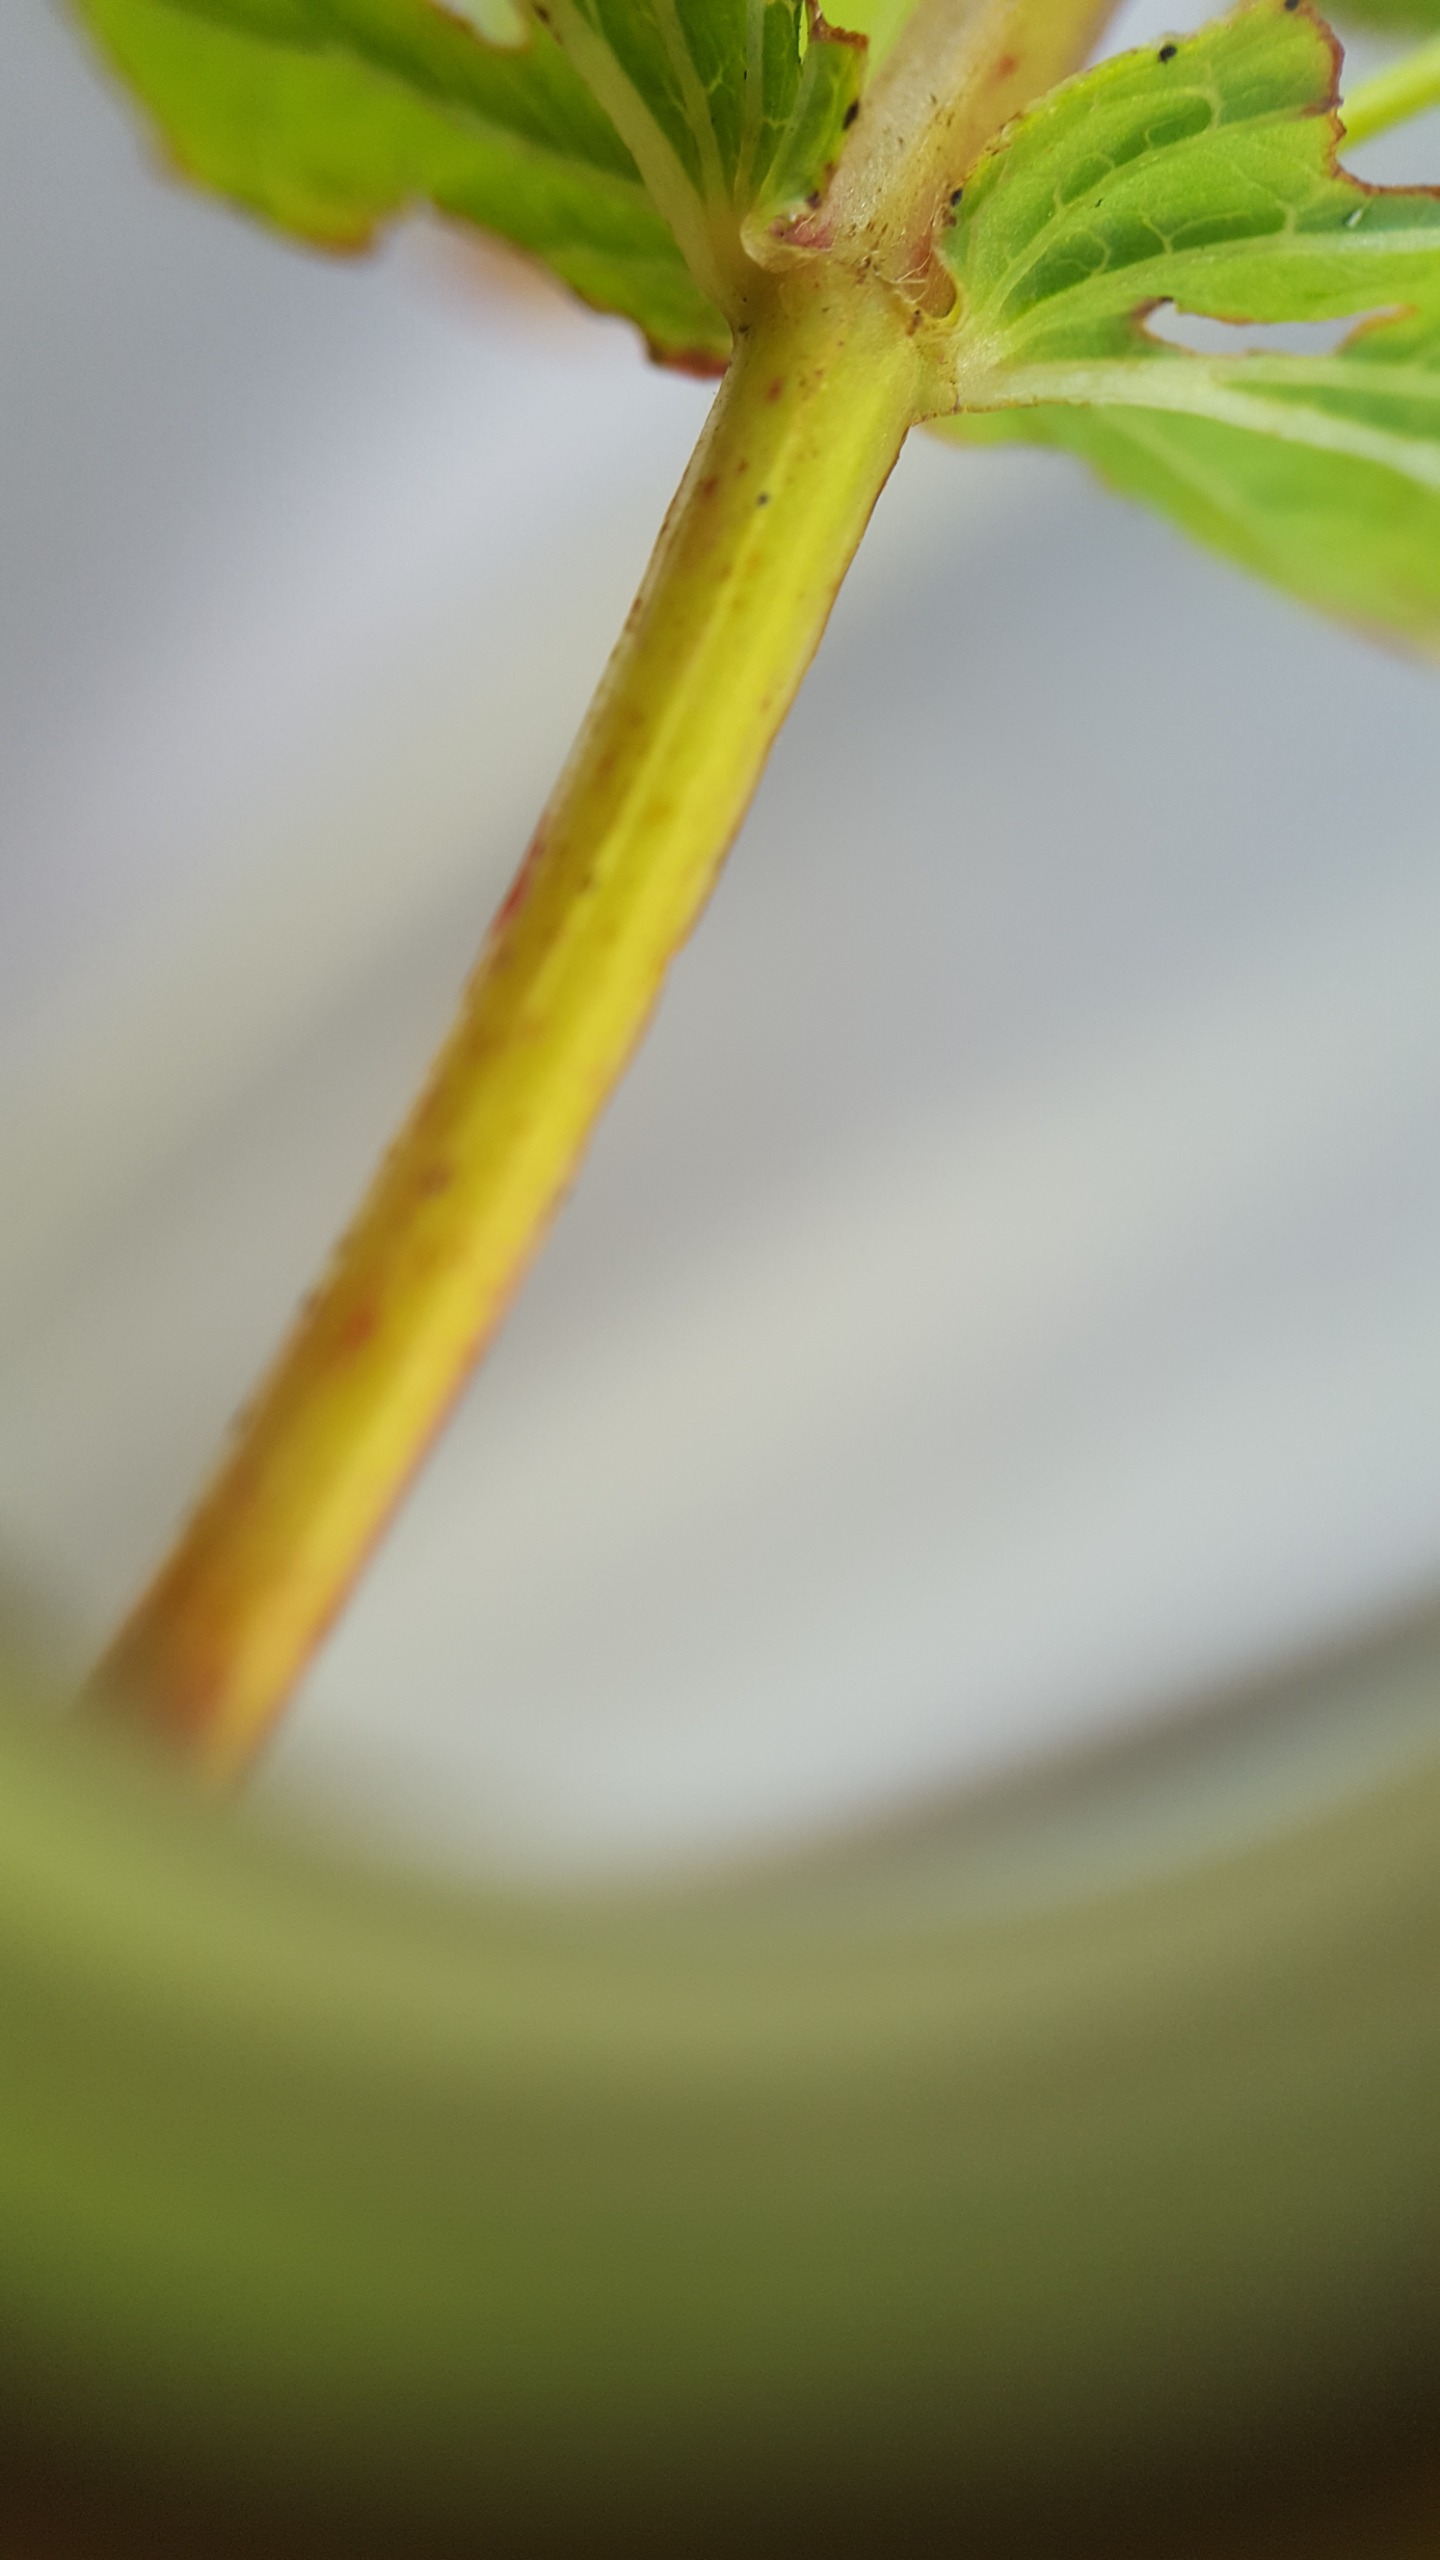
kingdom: Plantae
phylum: Tracheophyta
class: Magnoliopsida
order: Malpighiales
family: Hypericaceae
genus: Hypericum
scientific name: Hypericum maculatum
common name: Kantet perikon
